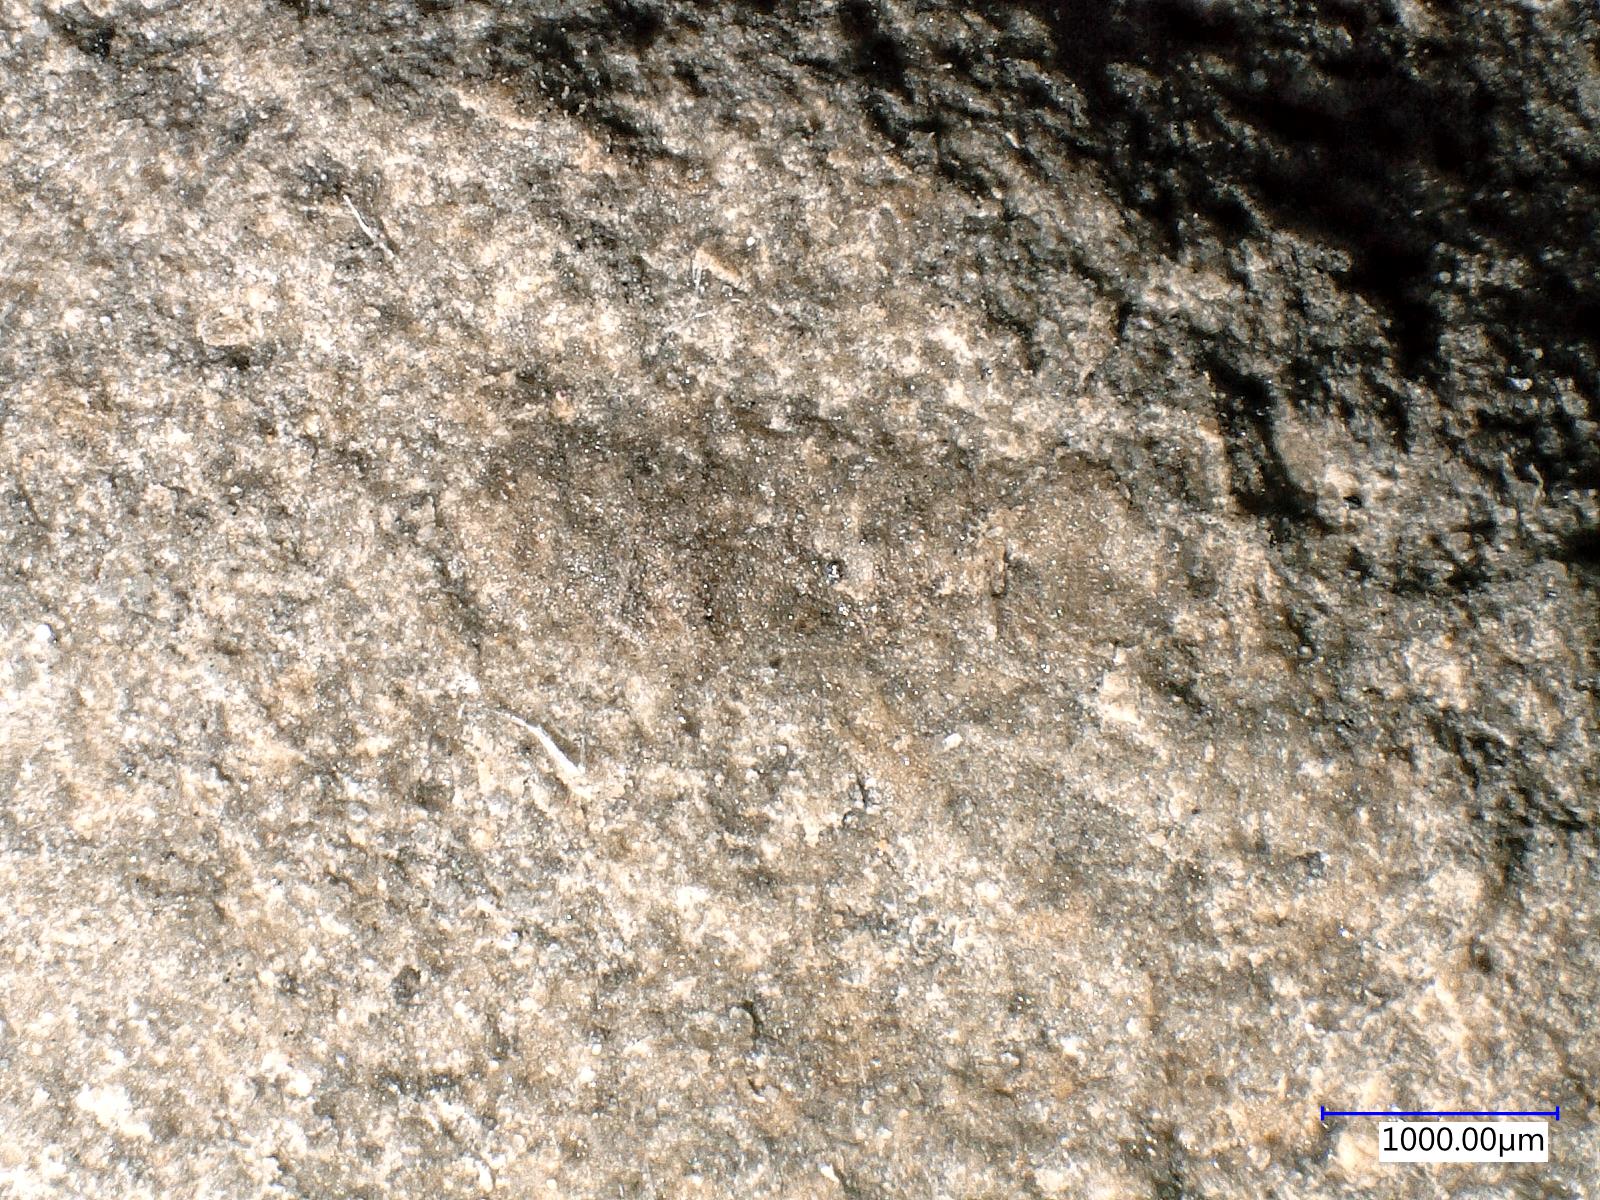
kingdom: Animalia
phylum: Arthropoda
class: Insecta
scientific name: Insecta
